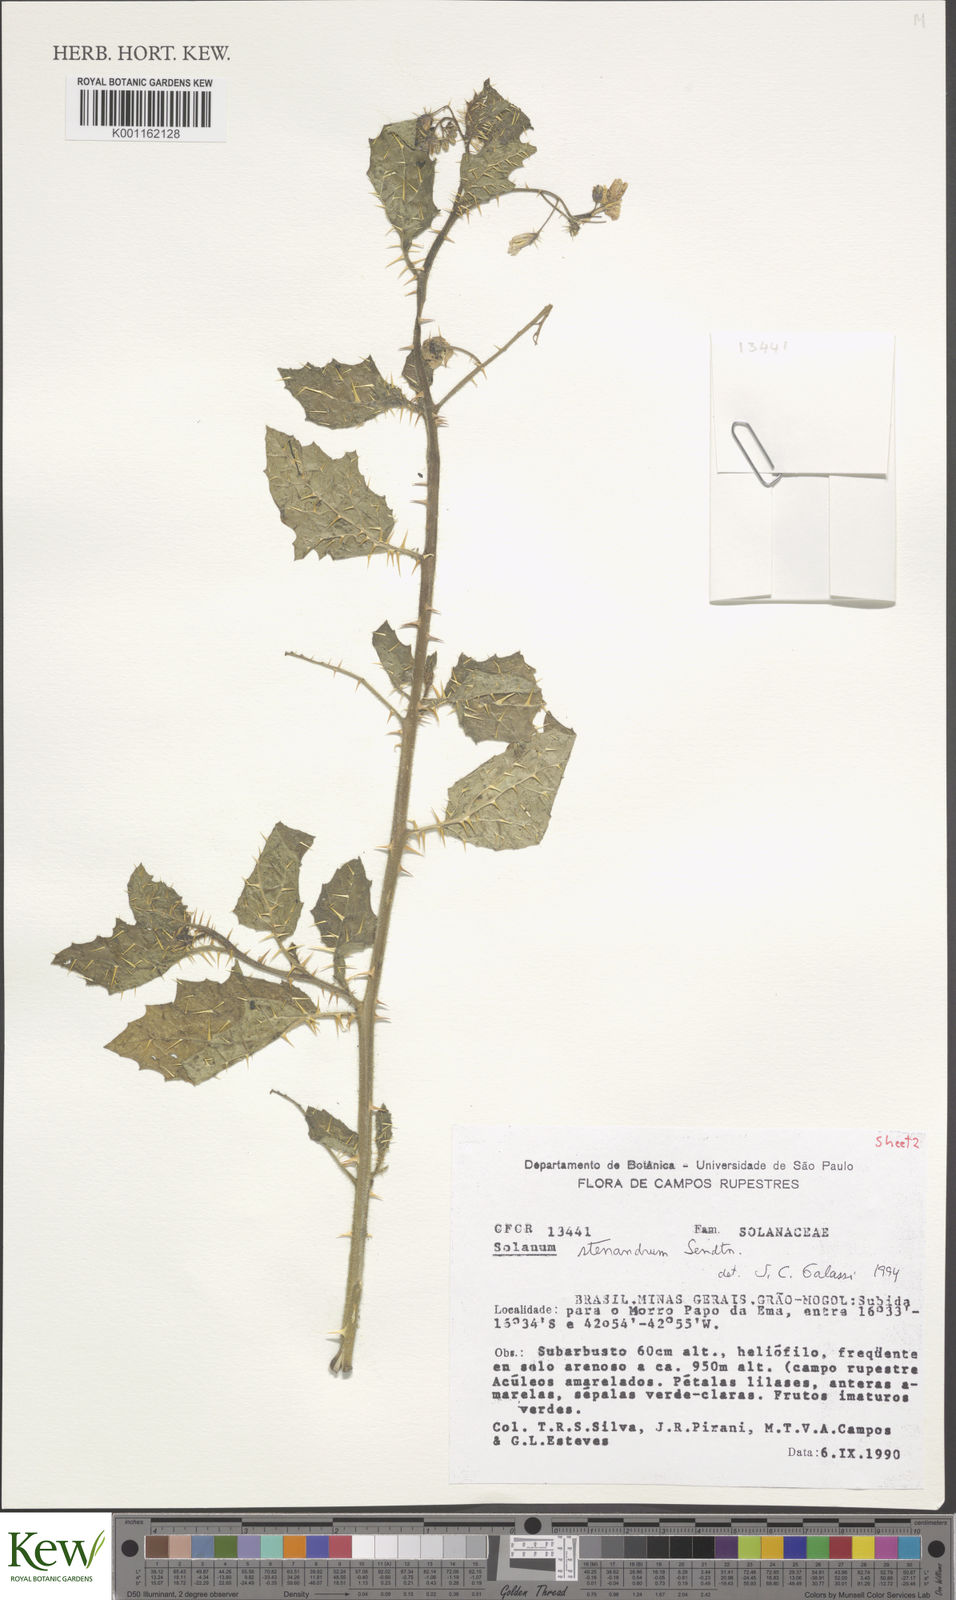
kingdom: Plantae
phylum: Tracheophyta
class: Magnoliopsida
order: Solanales
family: Solanaceae
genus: Solanum
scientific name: Solanum stenandrum
